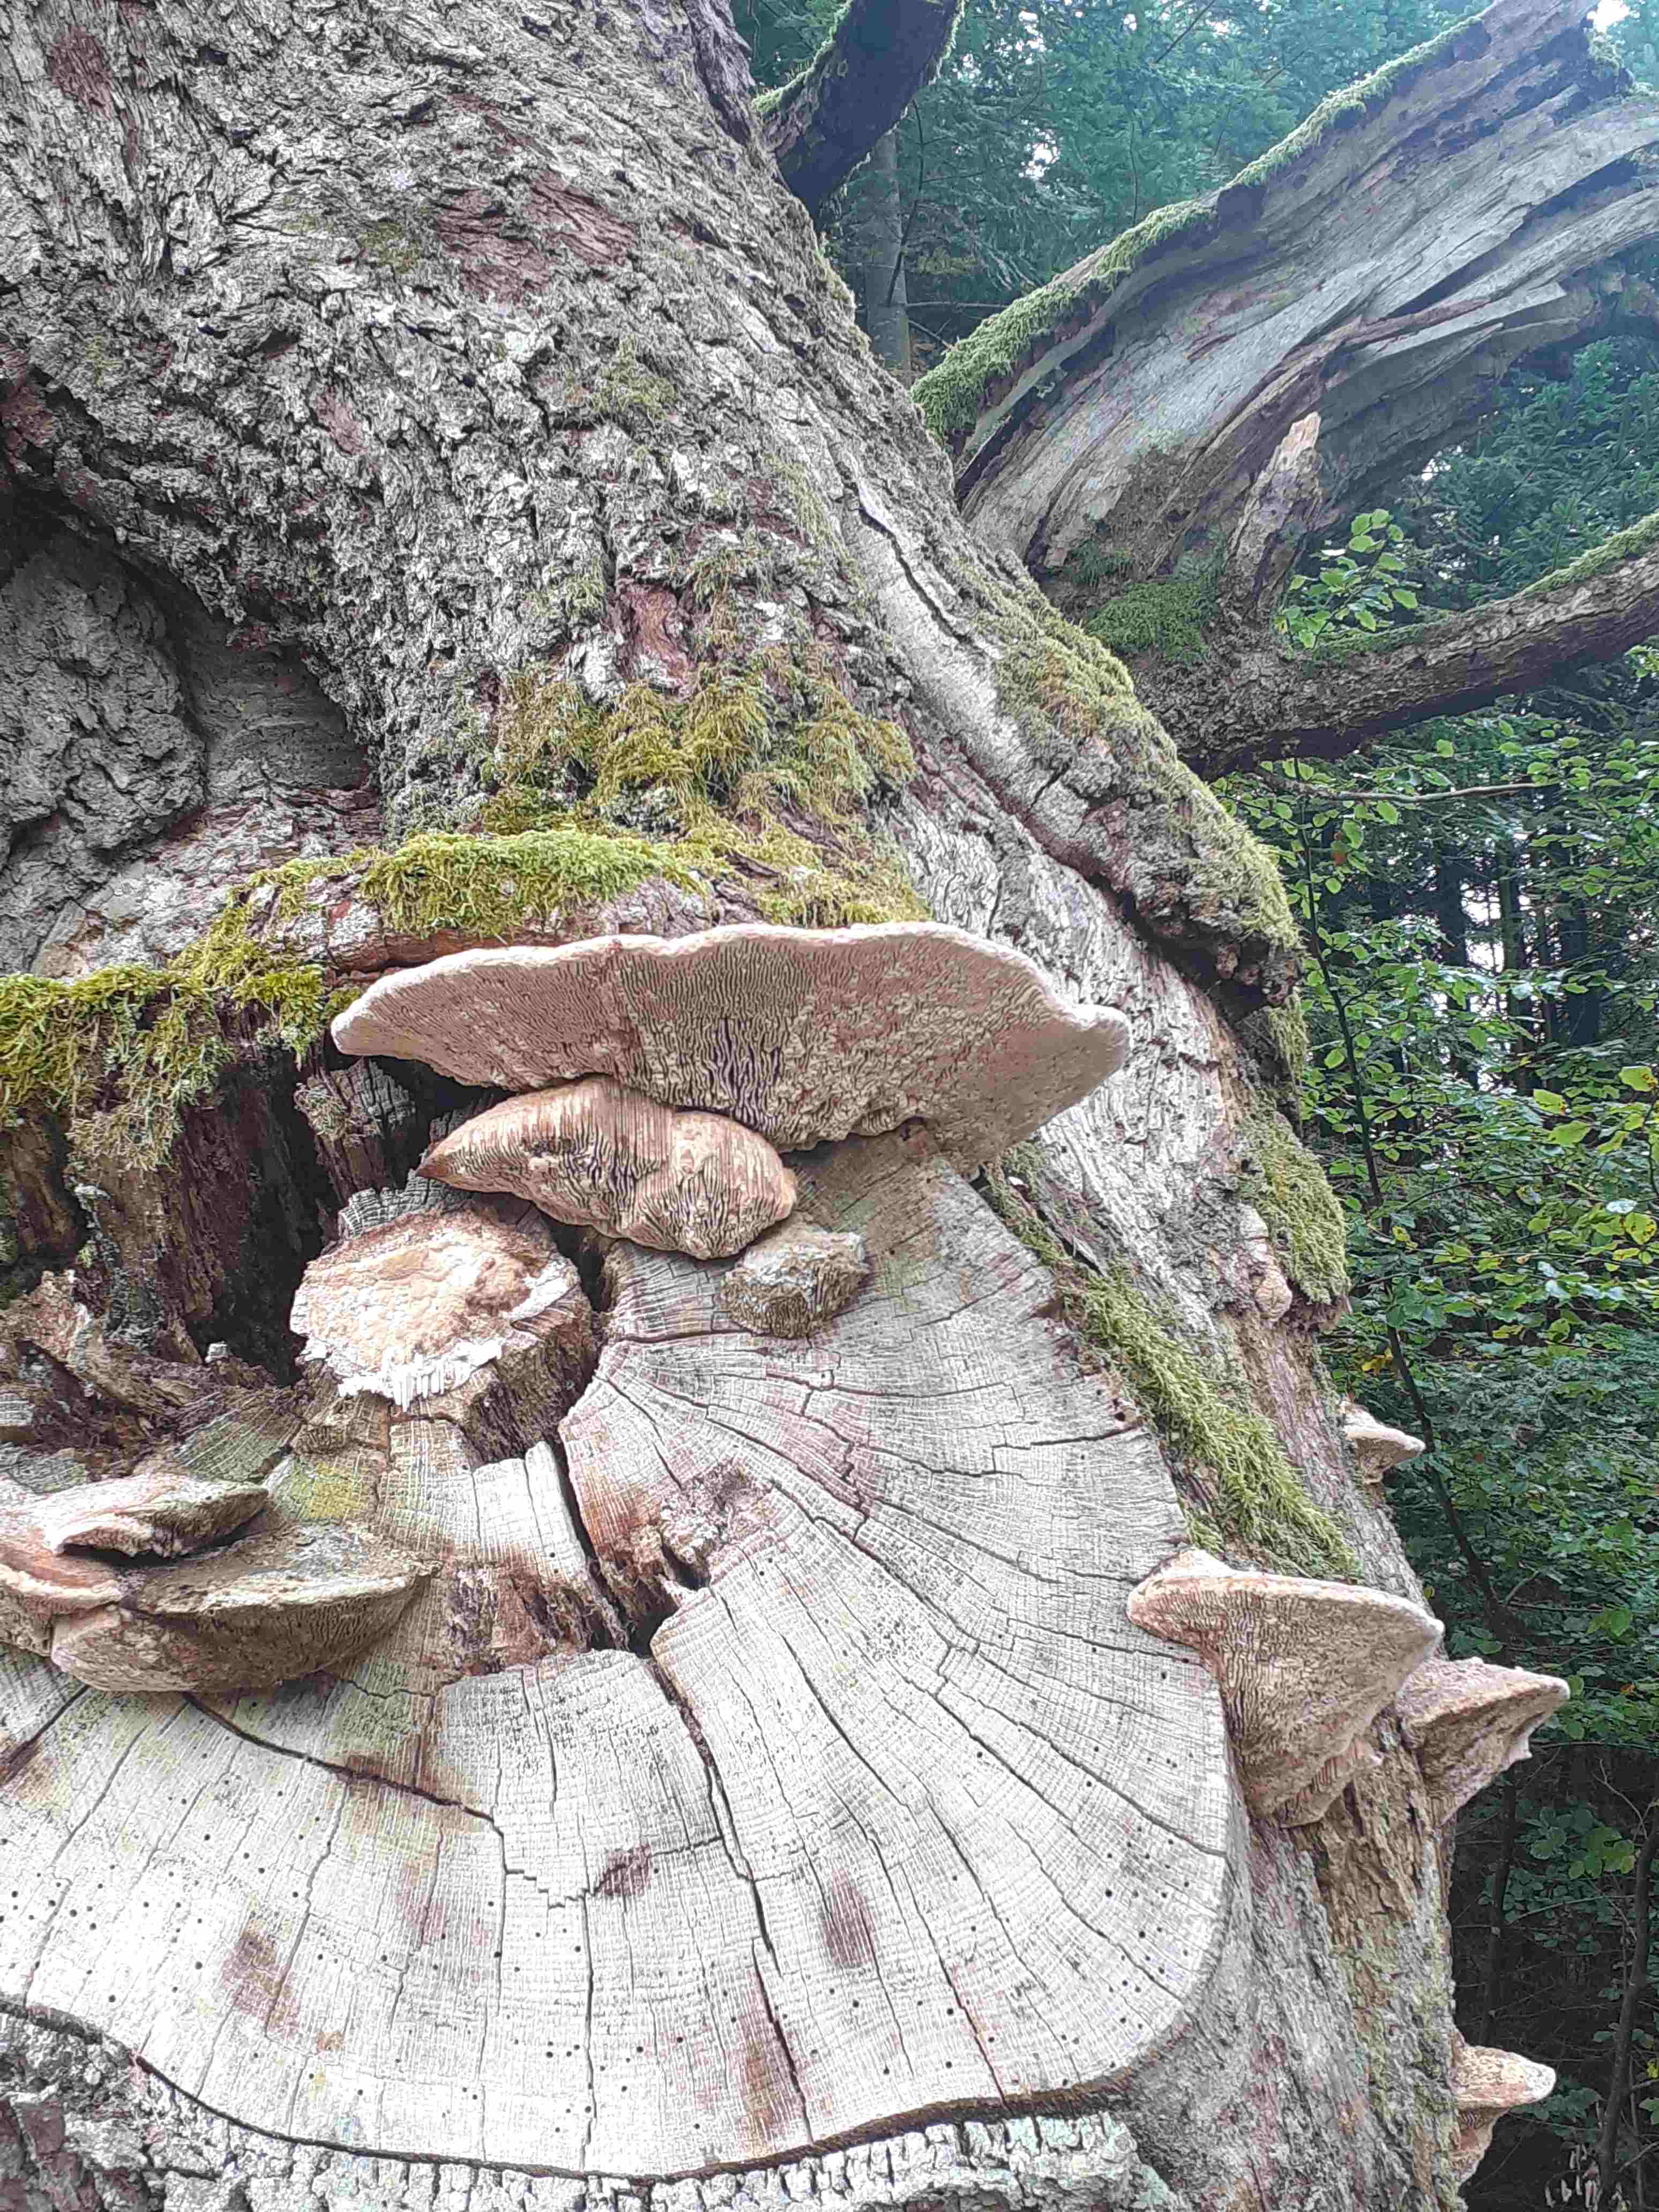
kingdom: Fungi
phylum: Basidiomycota
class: Agaricomycetes
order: Polyporales
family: Fomitopsidaceae
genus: Daedalea
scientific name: Daedalea quercina
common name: ege-labyrintsvamp
